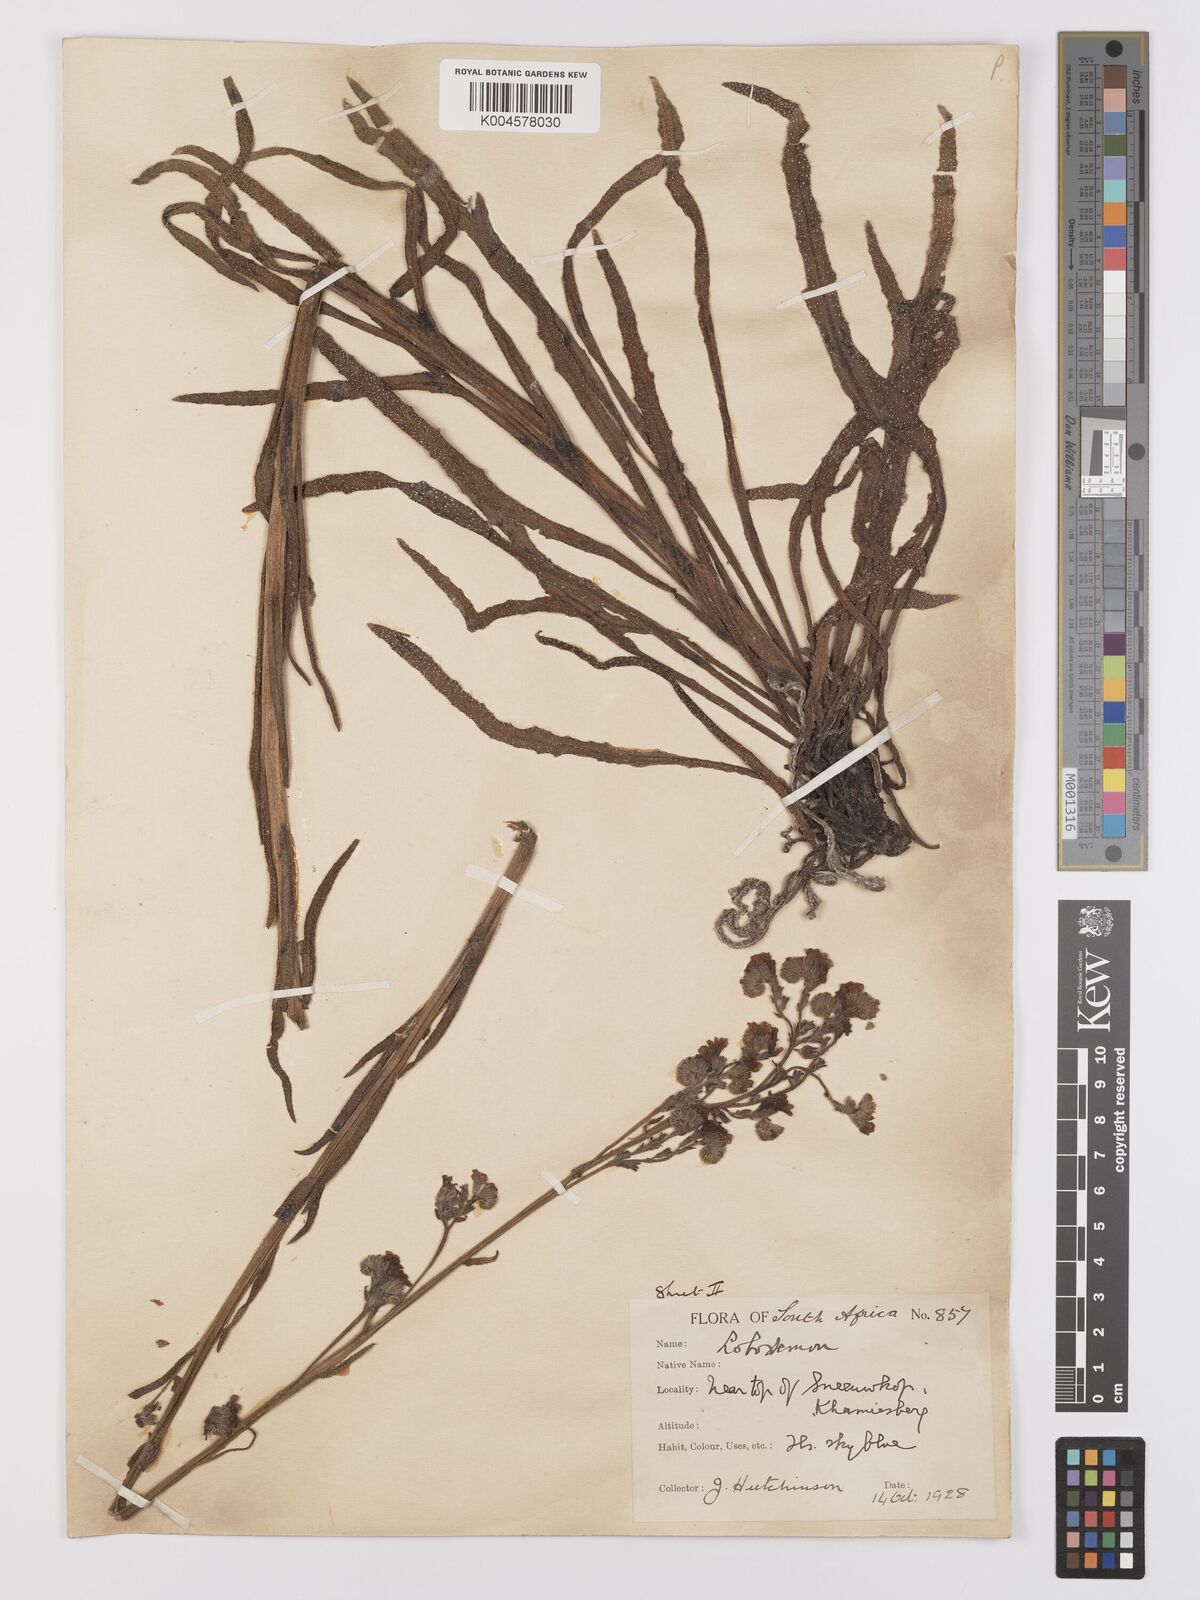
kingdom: Plantae
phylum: Tracheophyta
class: Magnoliopsida
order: Boraginales
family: Boraginaceae
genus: Anchusa
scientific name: Anchusa capensis
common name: Cape bugloss
